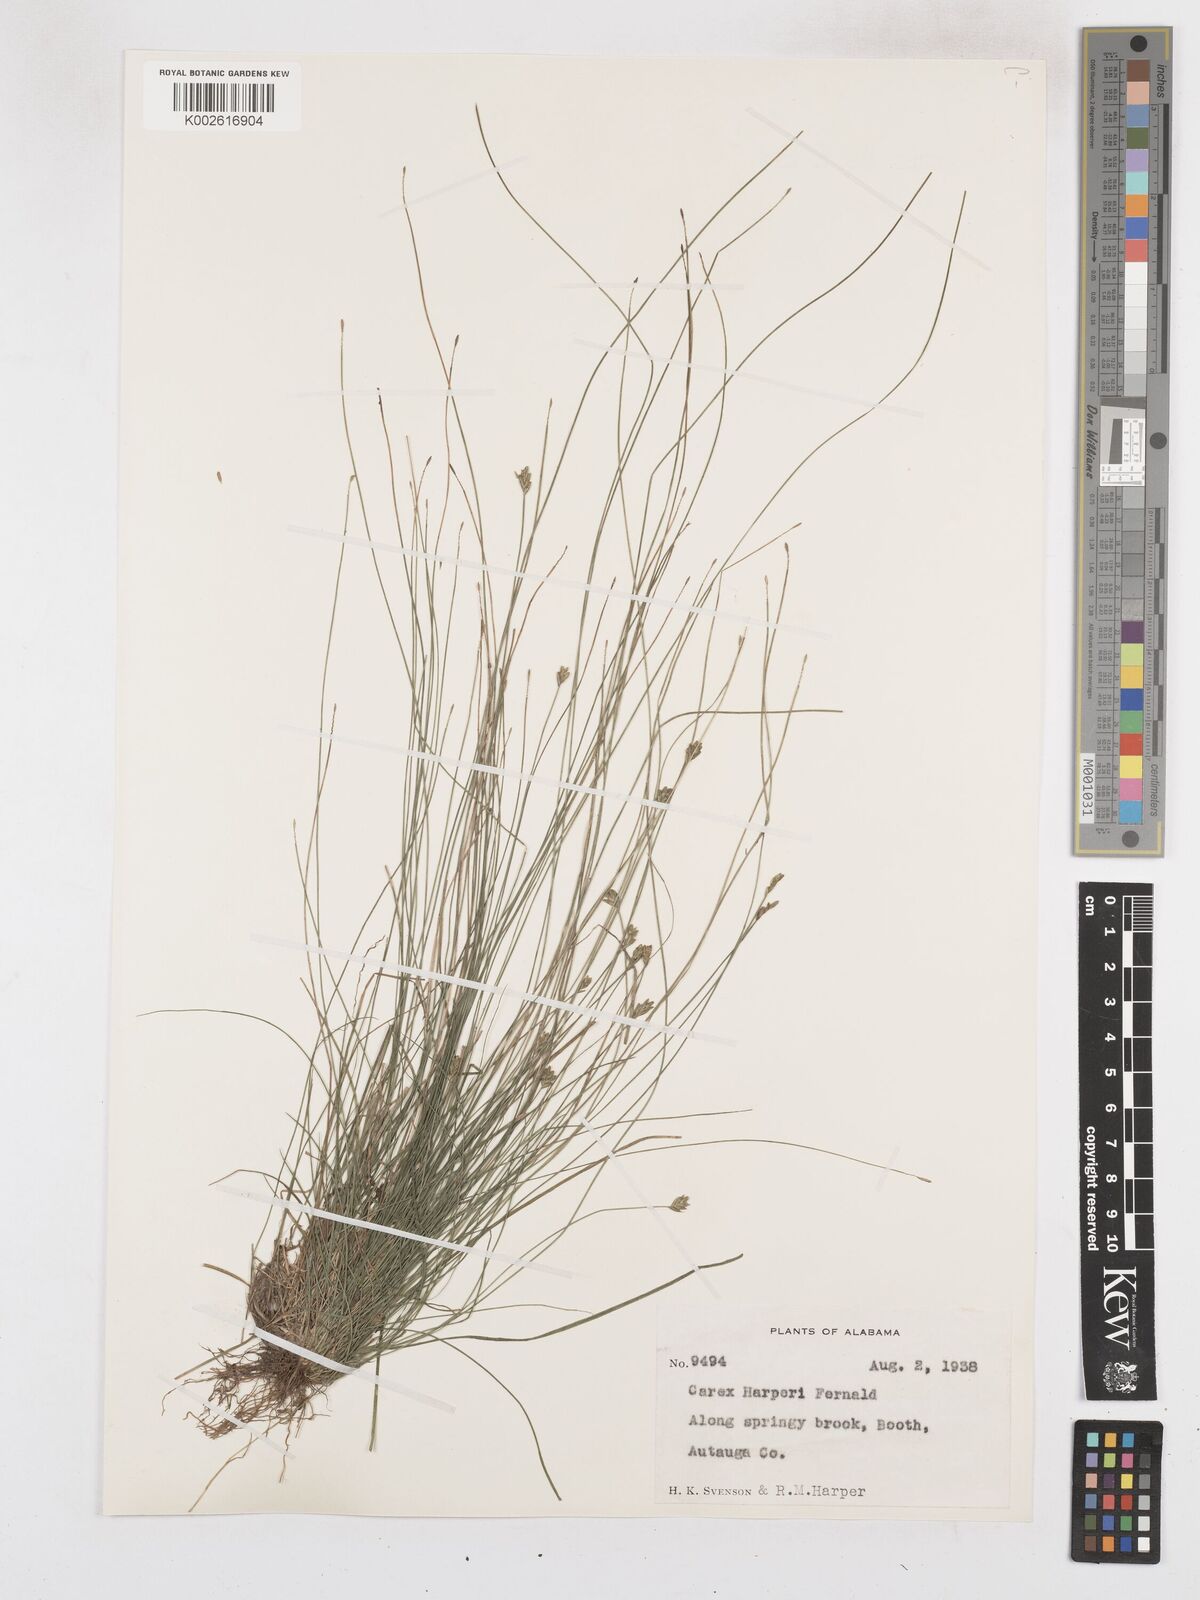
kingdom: Plantae
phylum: Tracheophyta
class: Liliopsida
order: Poales
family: Cyperaceae
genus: Carex
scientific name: Carex leptalea
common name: Bristly-stalked sedge
